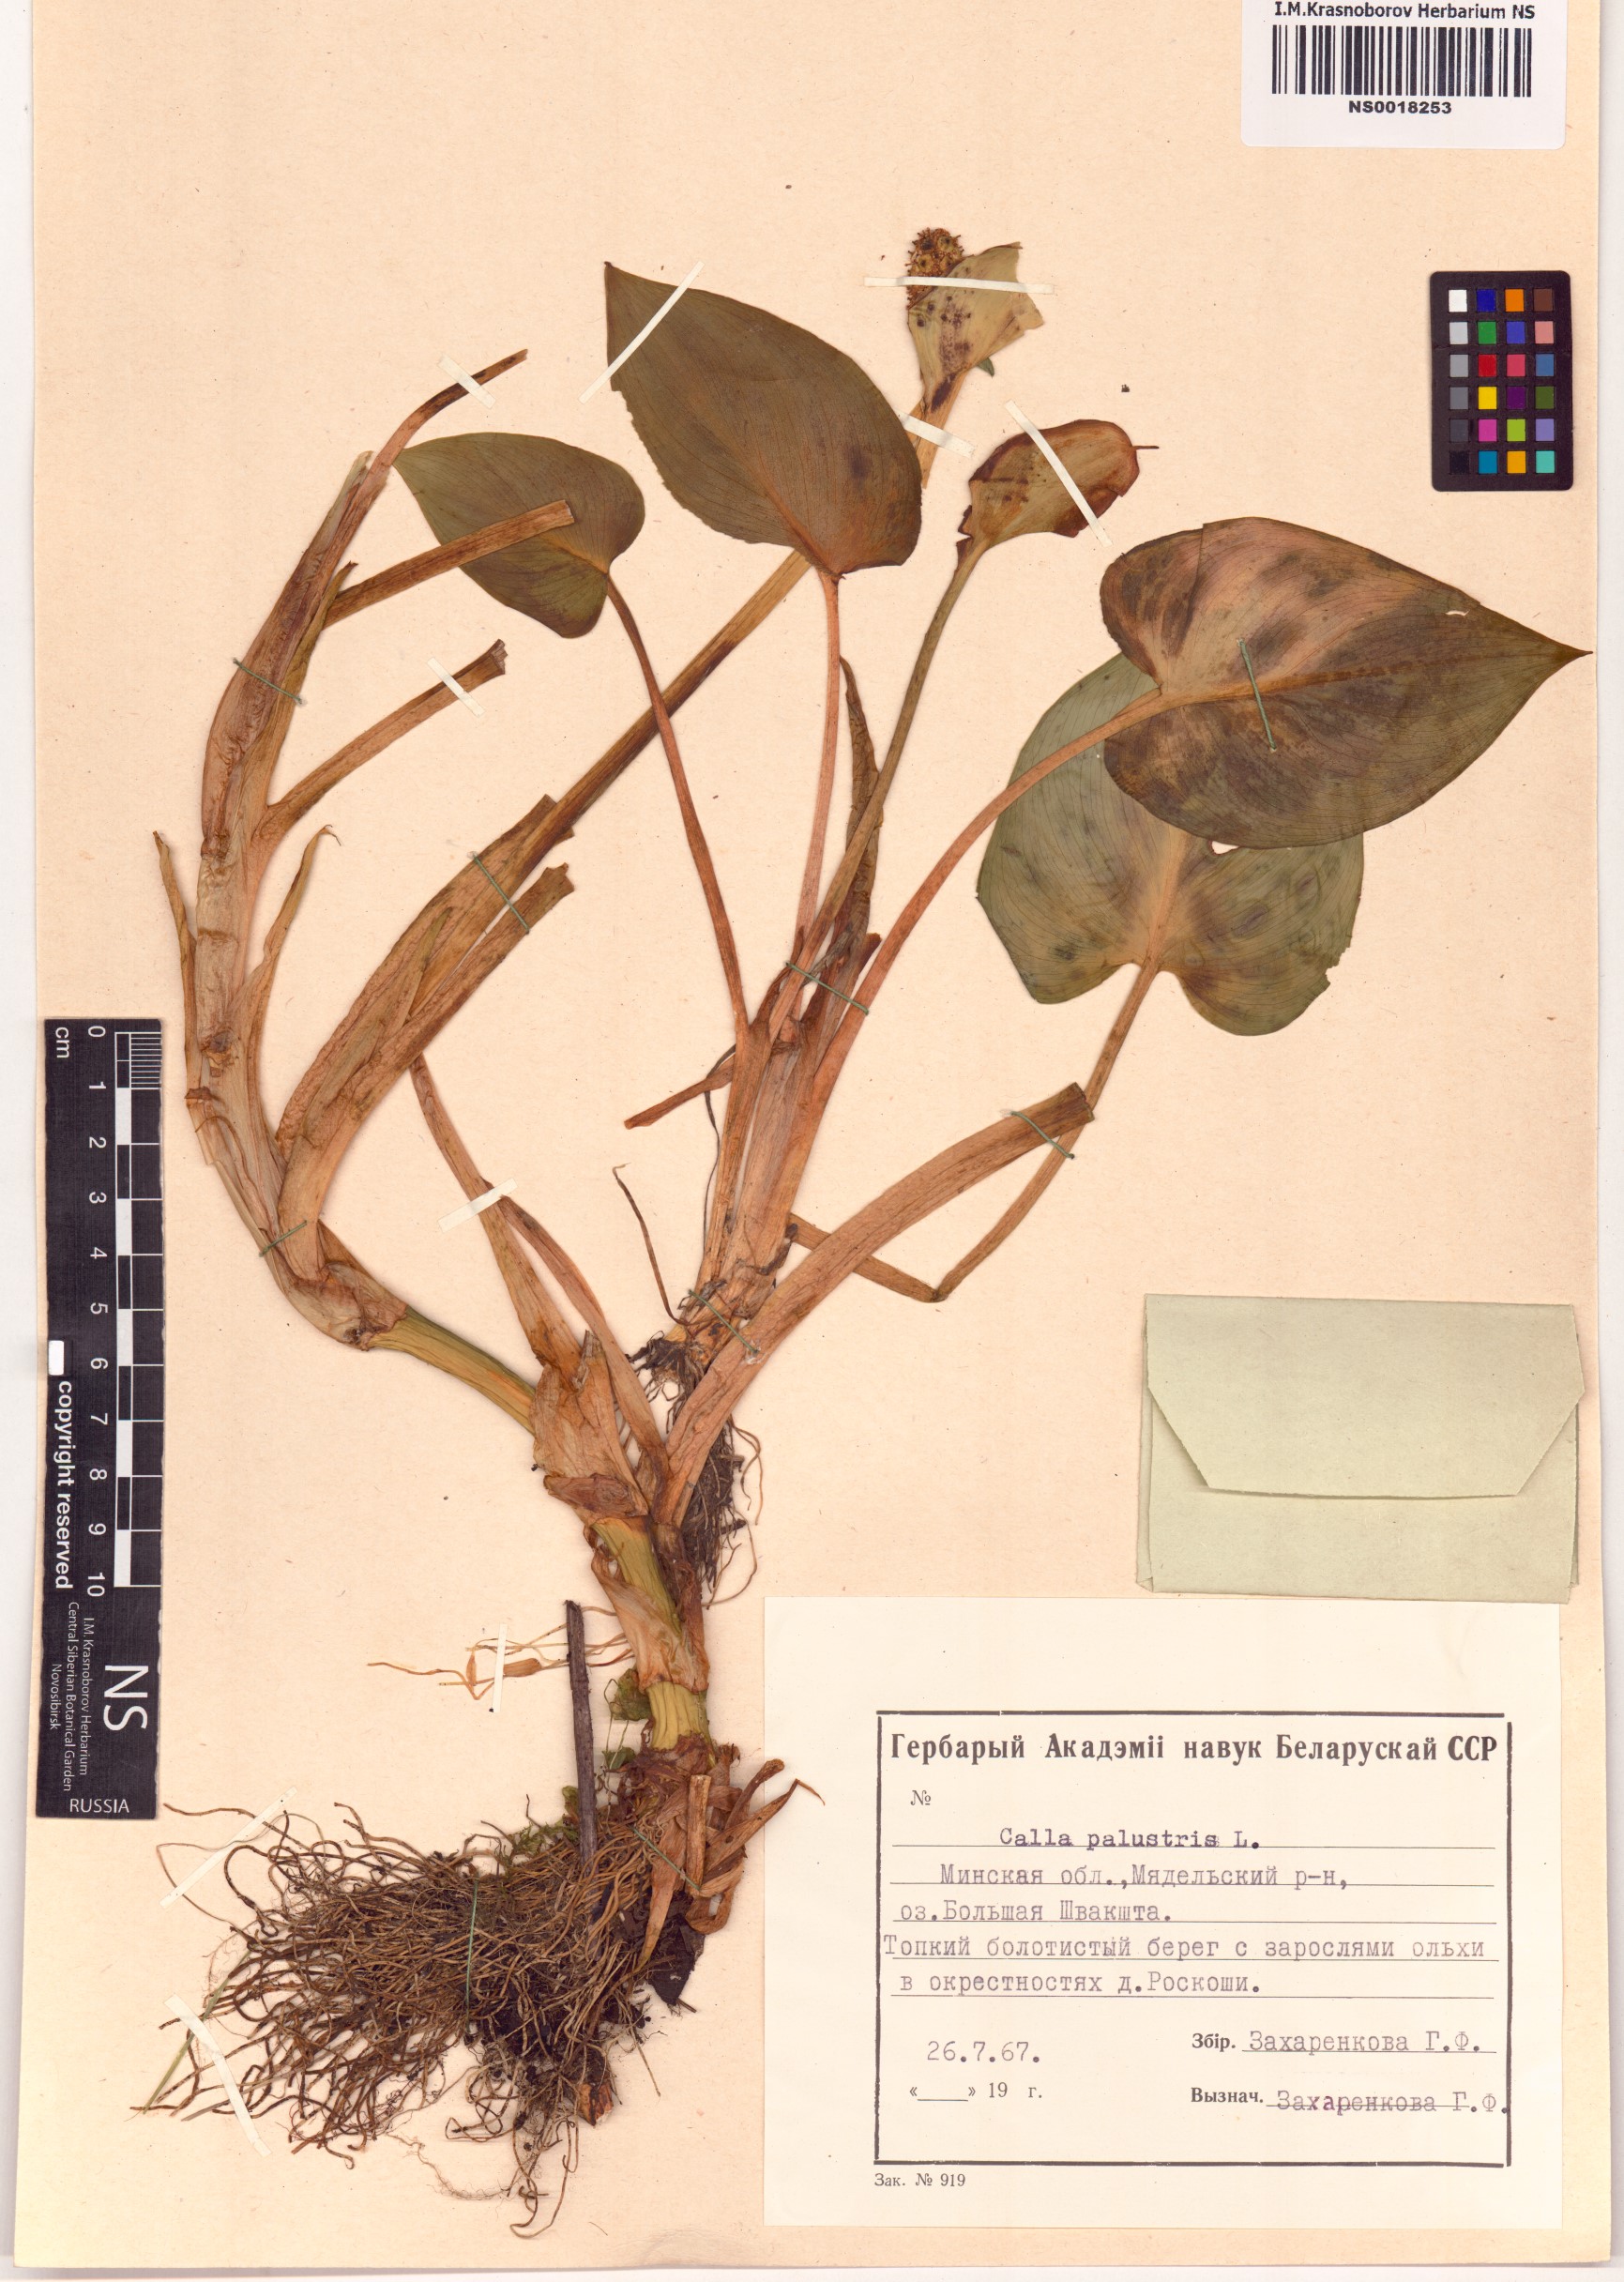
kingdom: Plantae
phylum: Tracheophyta
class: Liliopsida
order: Alismatales
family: Araceae
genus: Calla
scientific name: Calla palustris
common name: Bog arum
